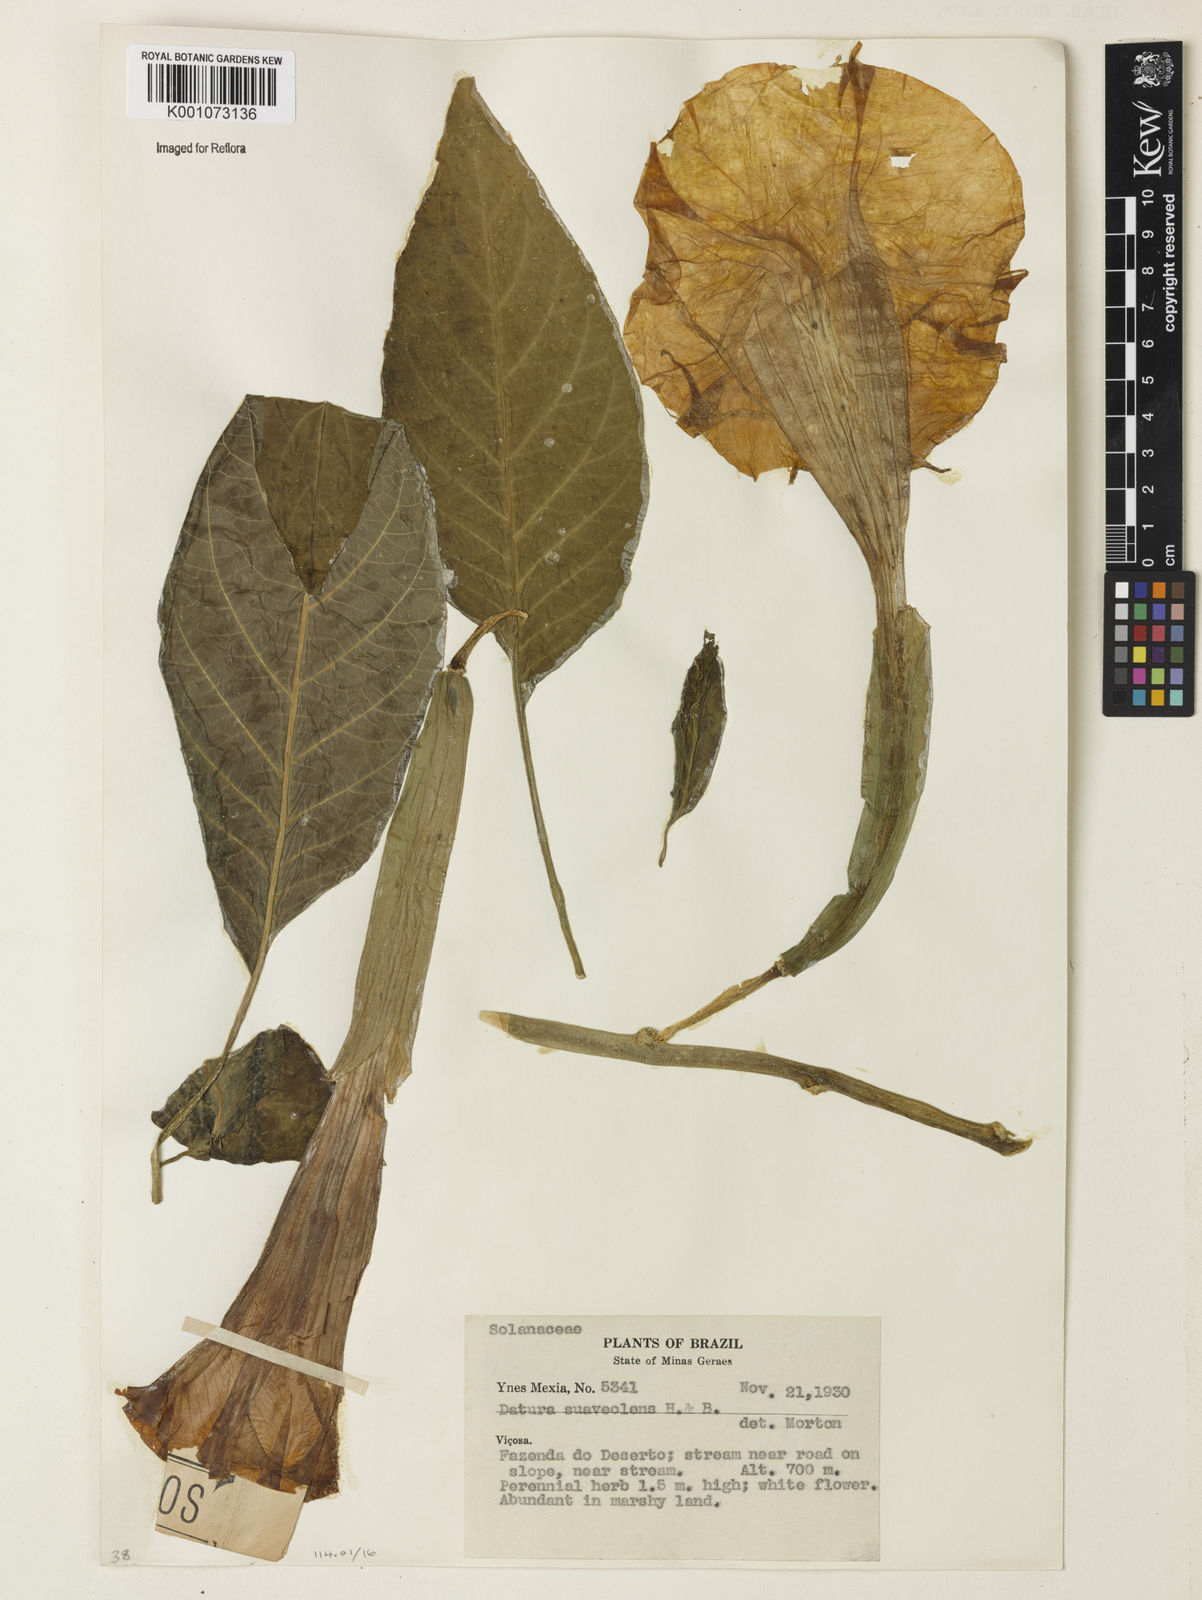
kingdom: Plantae
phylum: Tracheophyta
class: Magnoliopsida
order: Solanales
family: Solanaceae
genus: Brugmansia
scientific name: Brugmansia
